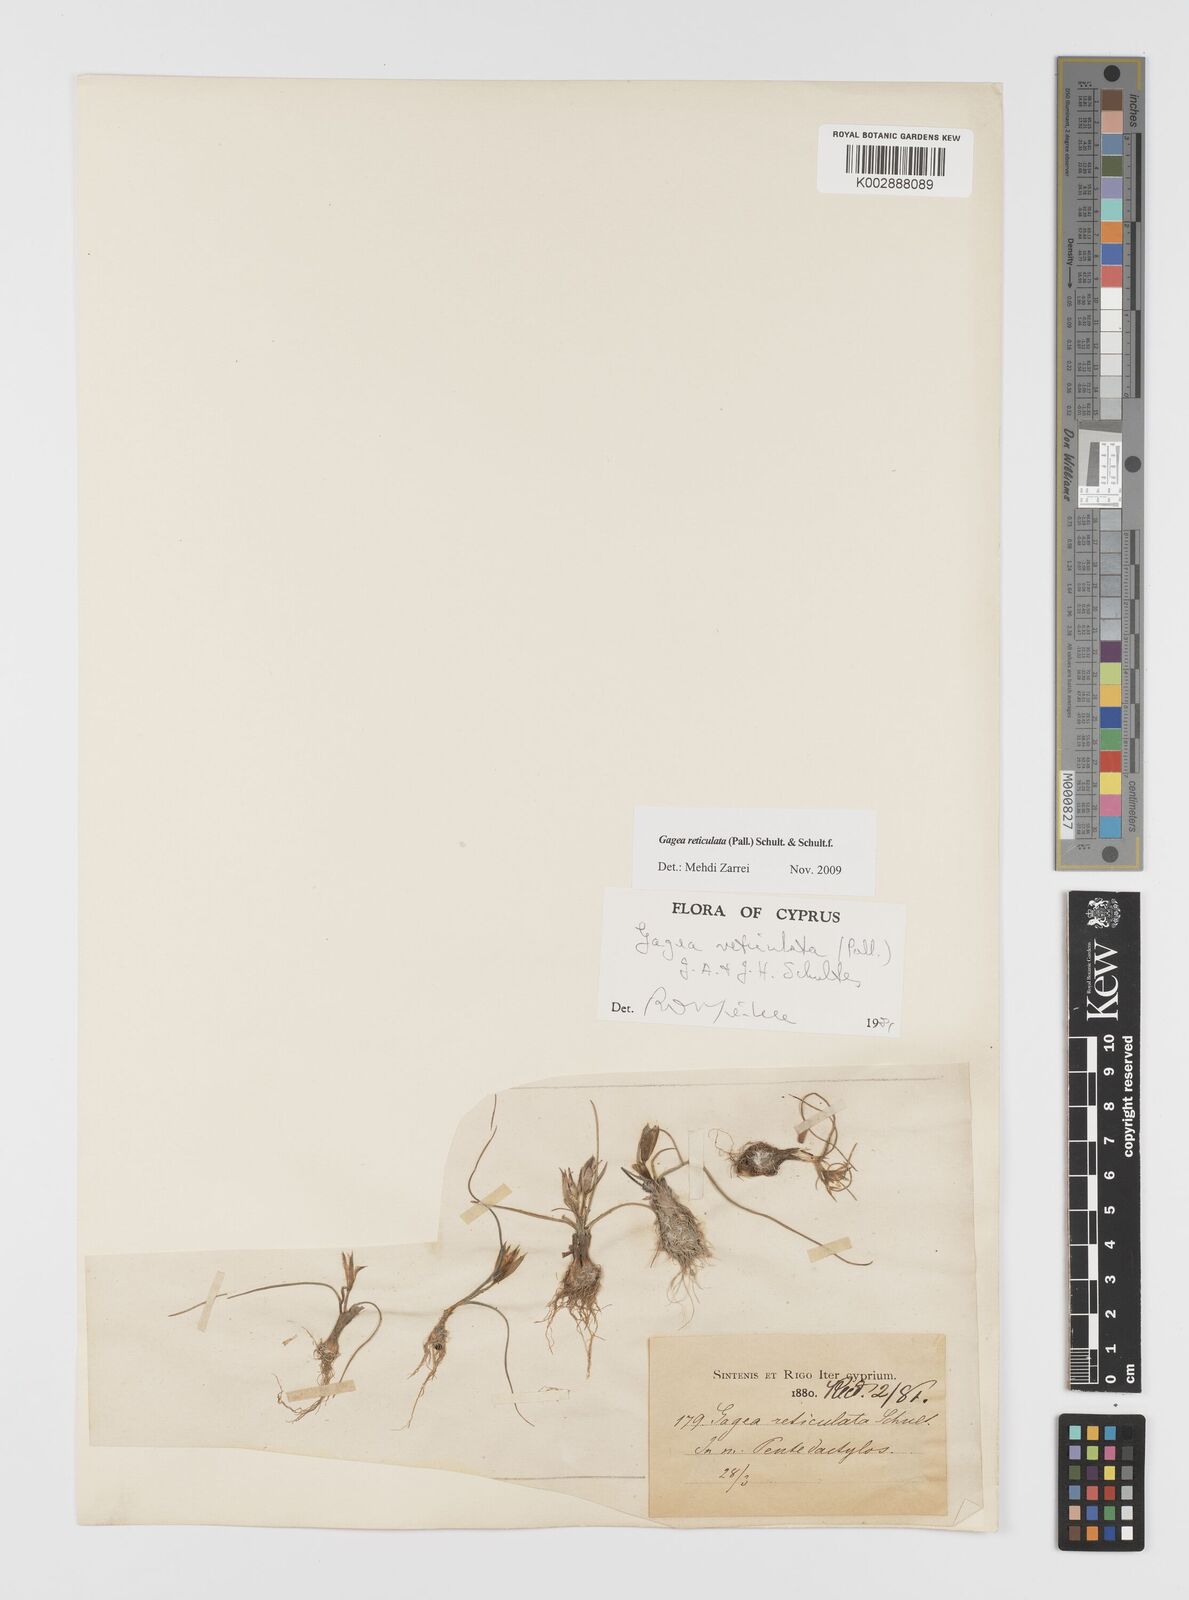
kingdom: Plantae
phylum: Tracheophyta
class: Liliopsida
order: Liliales
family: Liliaceae
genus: Gagea
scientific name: Gagea reticulata
